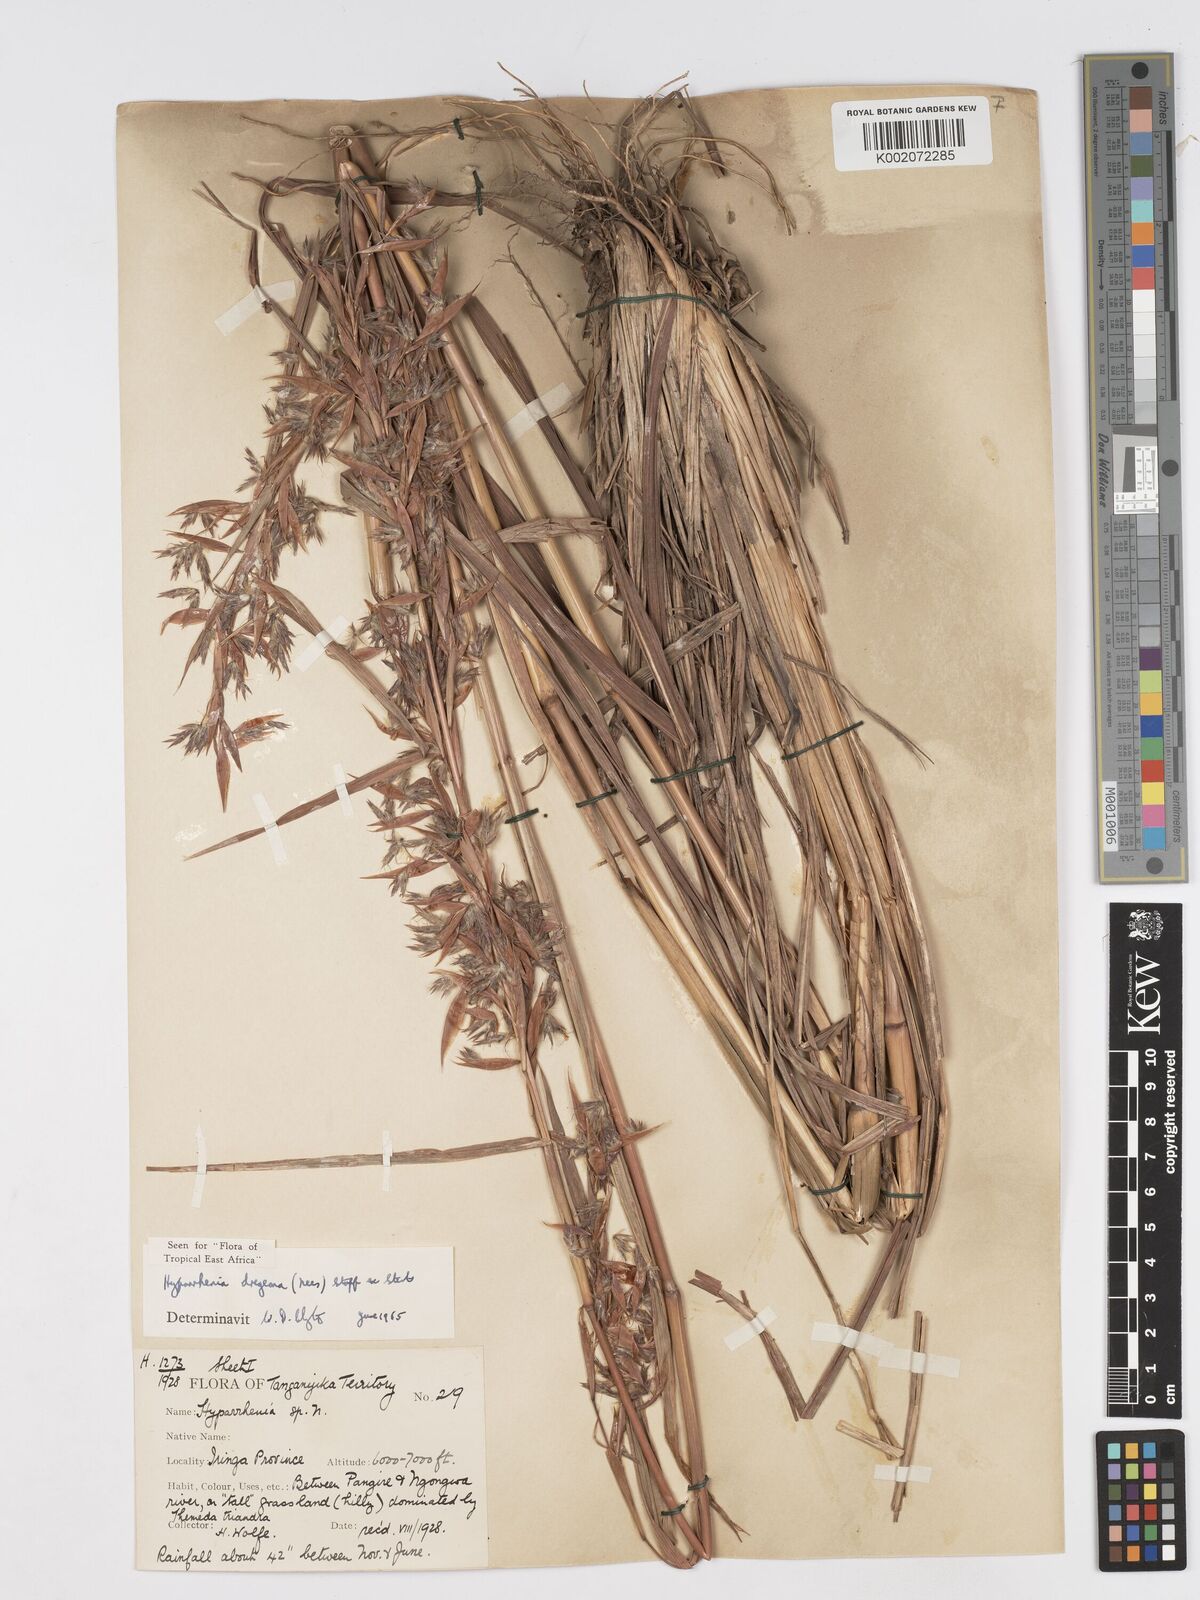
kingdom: Plantae
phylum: Tracheophyta
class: Liliopsida
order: Poales
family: Poaceae
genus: Hyparrhenia
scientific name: Hyparrhenia dregeana
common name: Silky thatching grass
